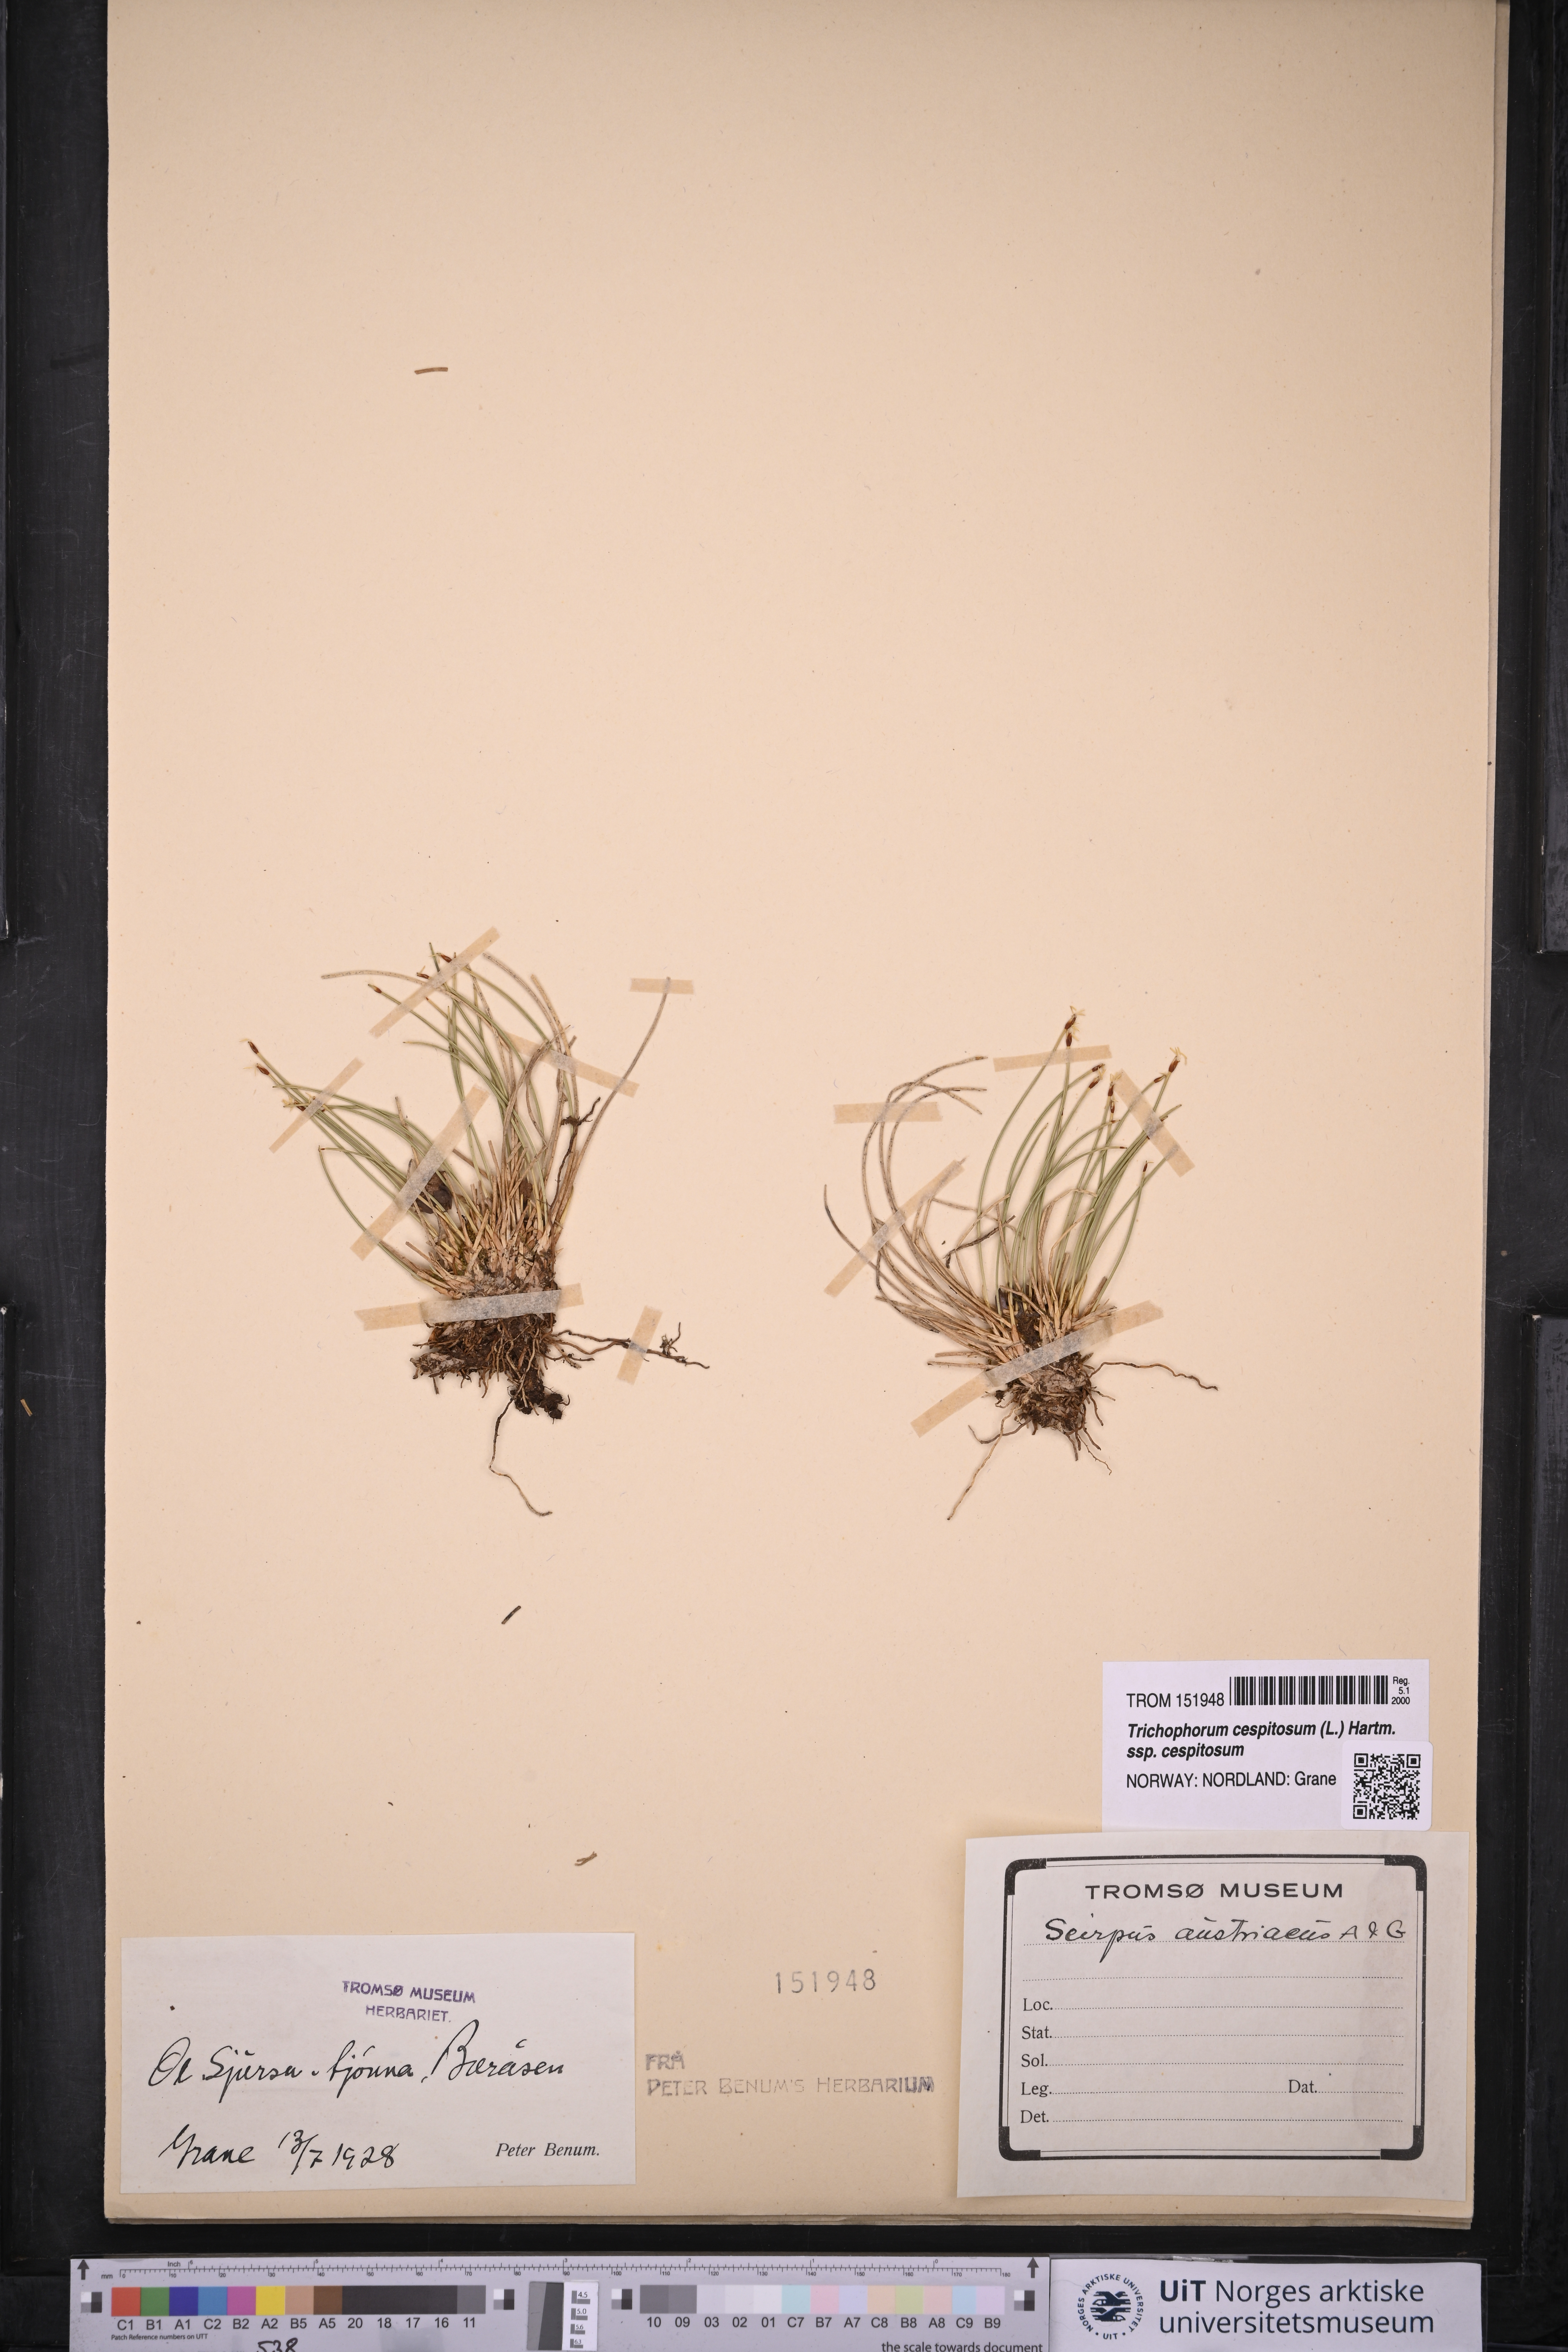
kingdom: Plantae
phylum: Tracheophyta
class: Liliopsida
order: Poales
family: Cyperaceae
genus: Trichophorum
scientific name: Trichophorum cespitosum
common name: Cespitose bulrush
